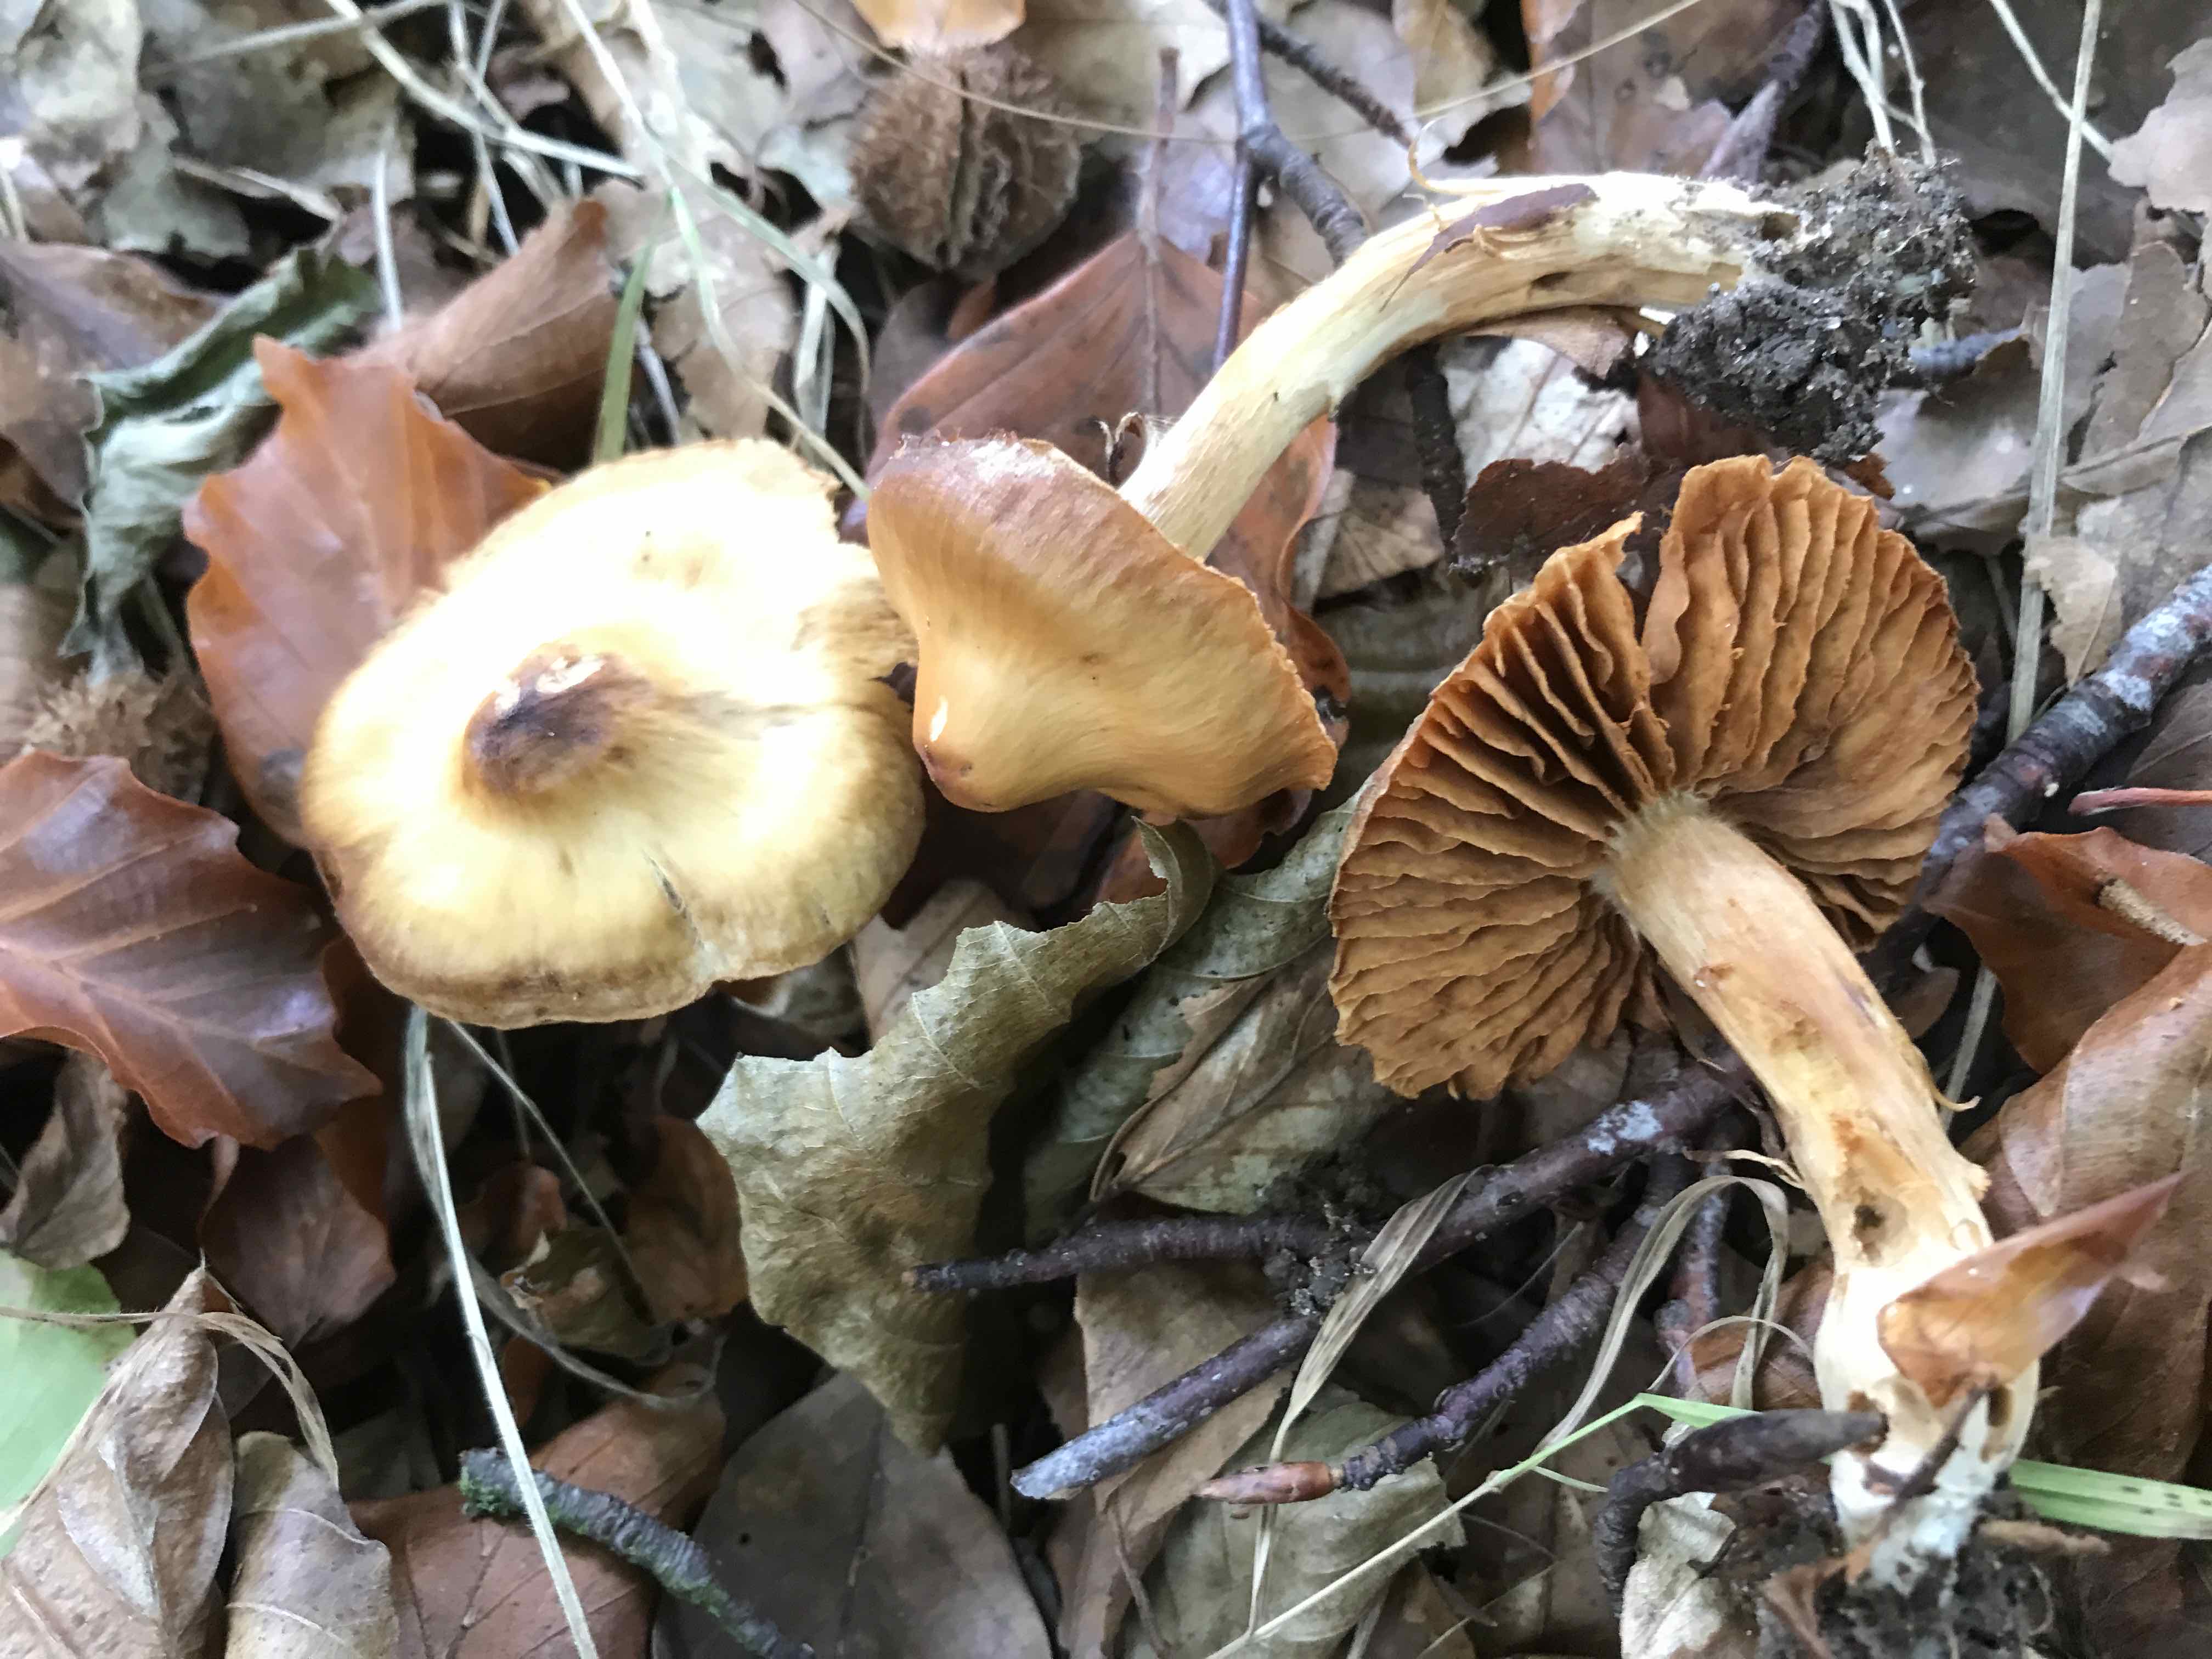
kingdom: Fungi
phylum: Basidiomycota
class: Agaricomycetes
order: Agaricales
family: Cortinariaceae
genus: Cortinarius
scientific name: Cortinarius hinnuleus
